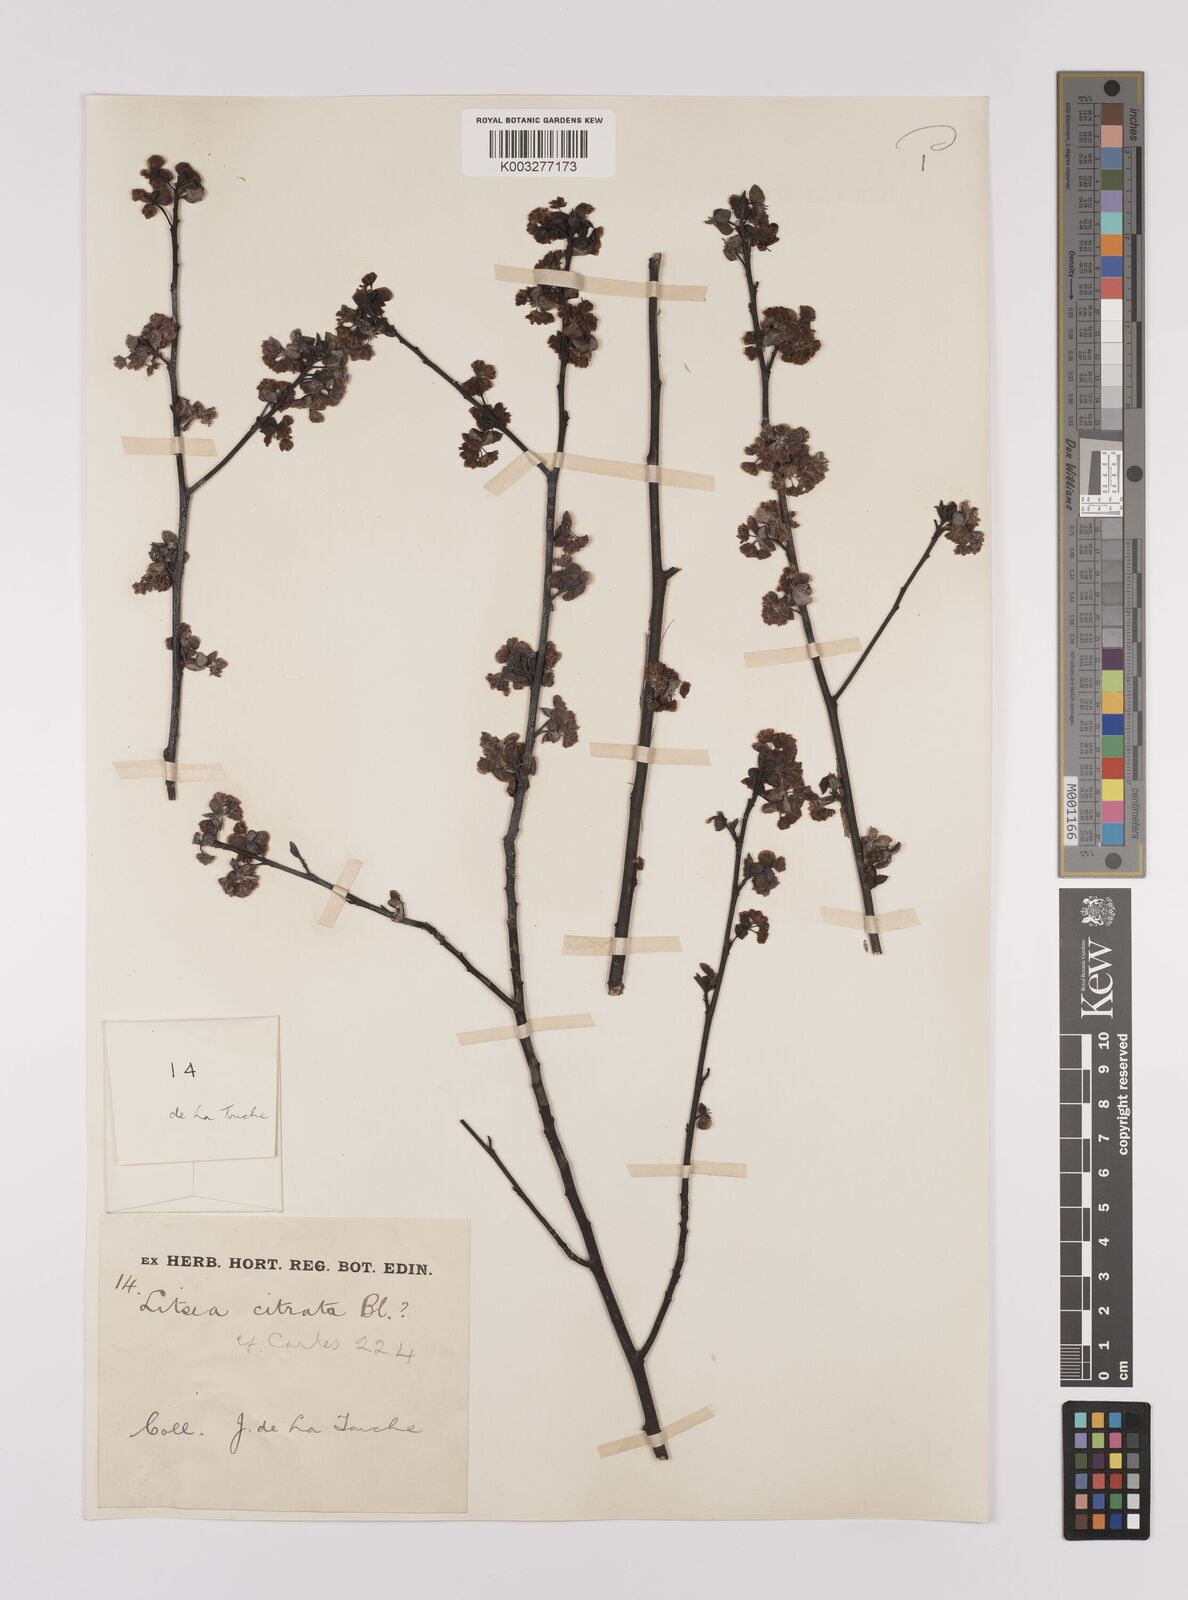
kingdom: Plantae
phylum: Tracheophyta
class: Magnoliopsida
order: Laurales
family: Lauraceae
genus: Litsea
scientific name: Litsea cubeba
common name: Mountain-pepper
